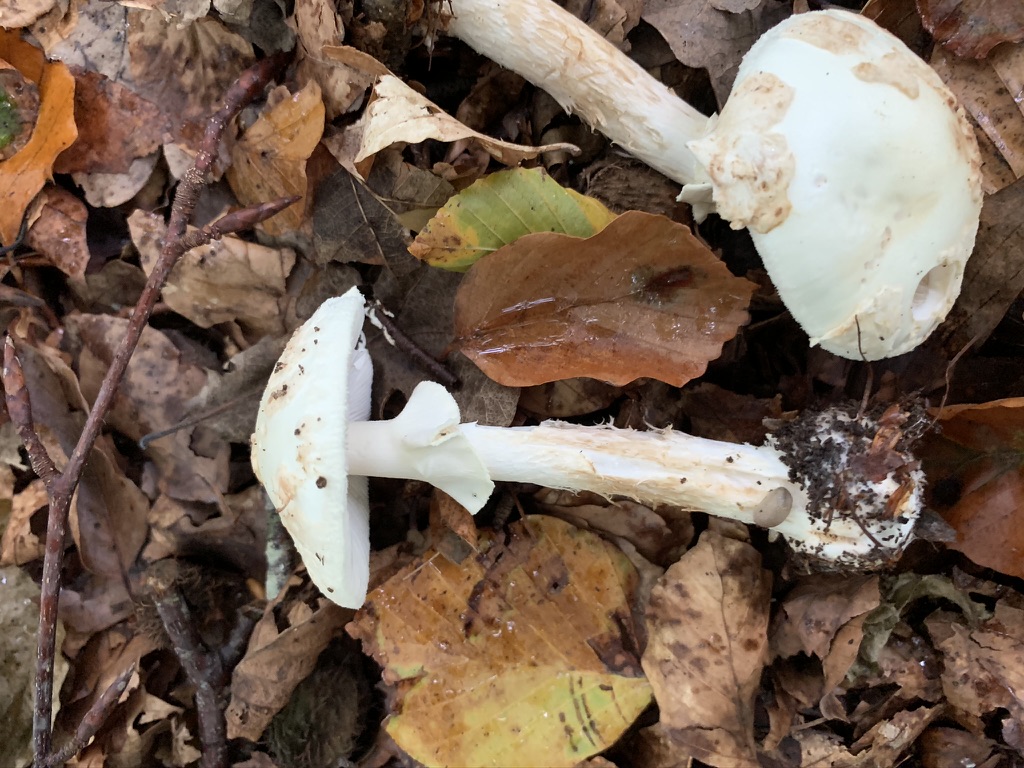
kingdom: Fungi
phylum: Basidiomycota
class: Agaricomycetes
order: Agaricales
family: Amanitaceae
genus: Amanita
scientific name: Amanita citrina
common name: kugleknoldet fluesvamp
